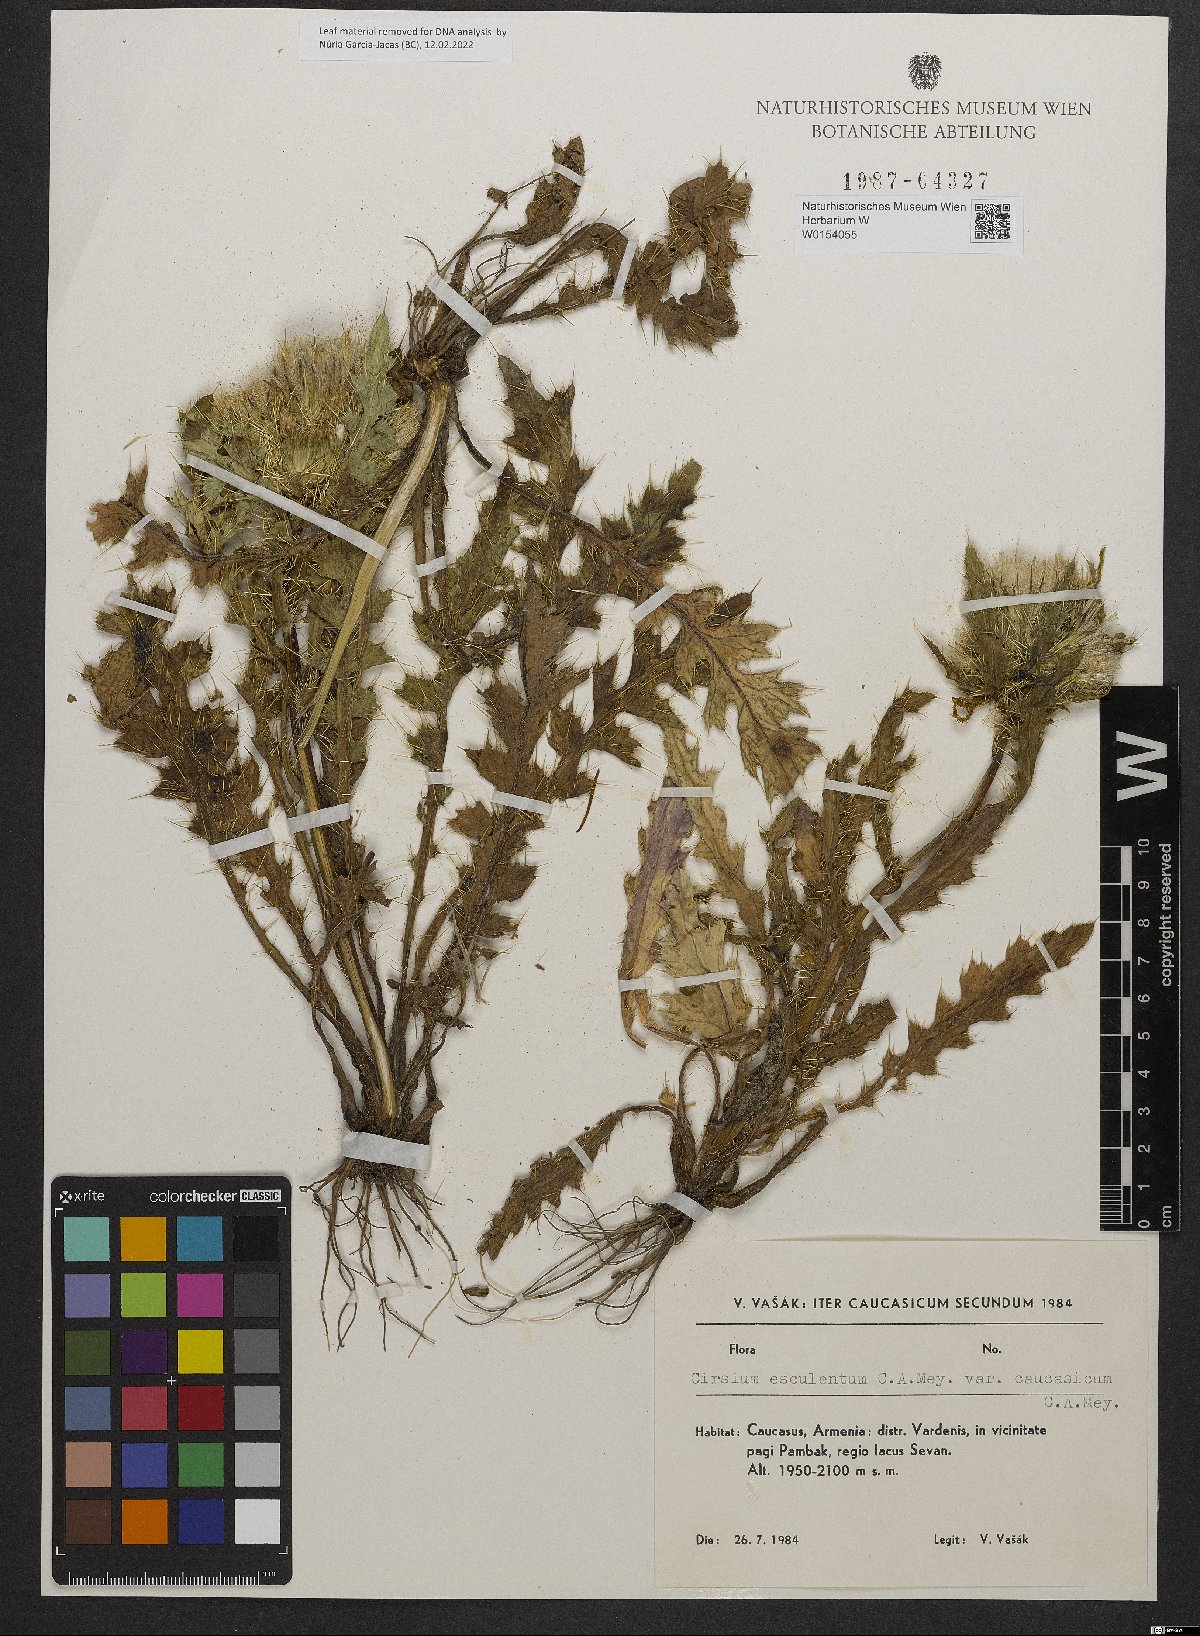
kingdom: Plantae
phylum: Tracheophyta
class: Magnoliopsida
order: Asterales
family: Asteraceae
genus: Cirsium
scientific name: Cirsium esculentum
